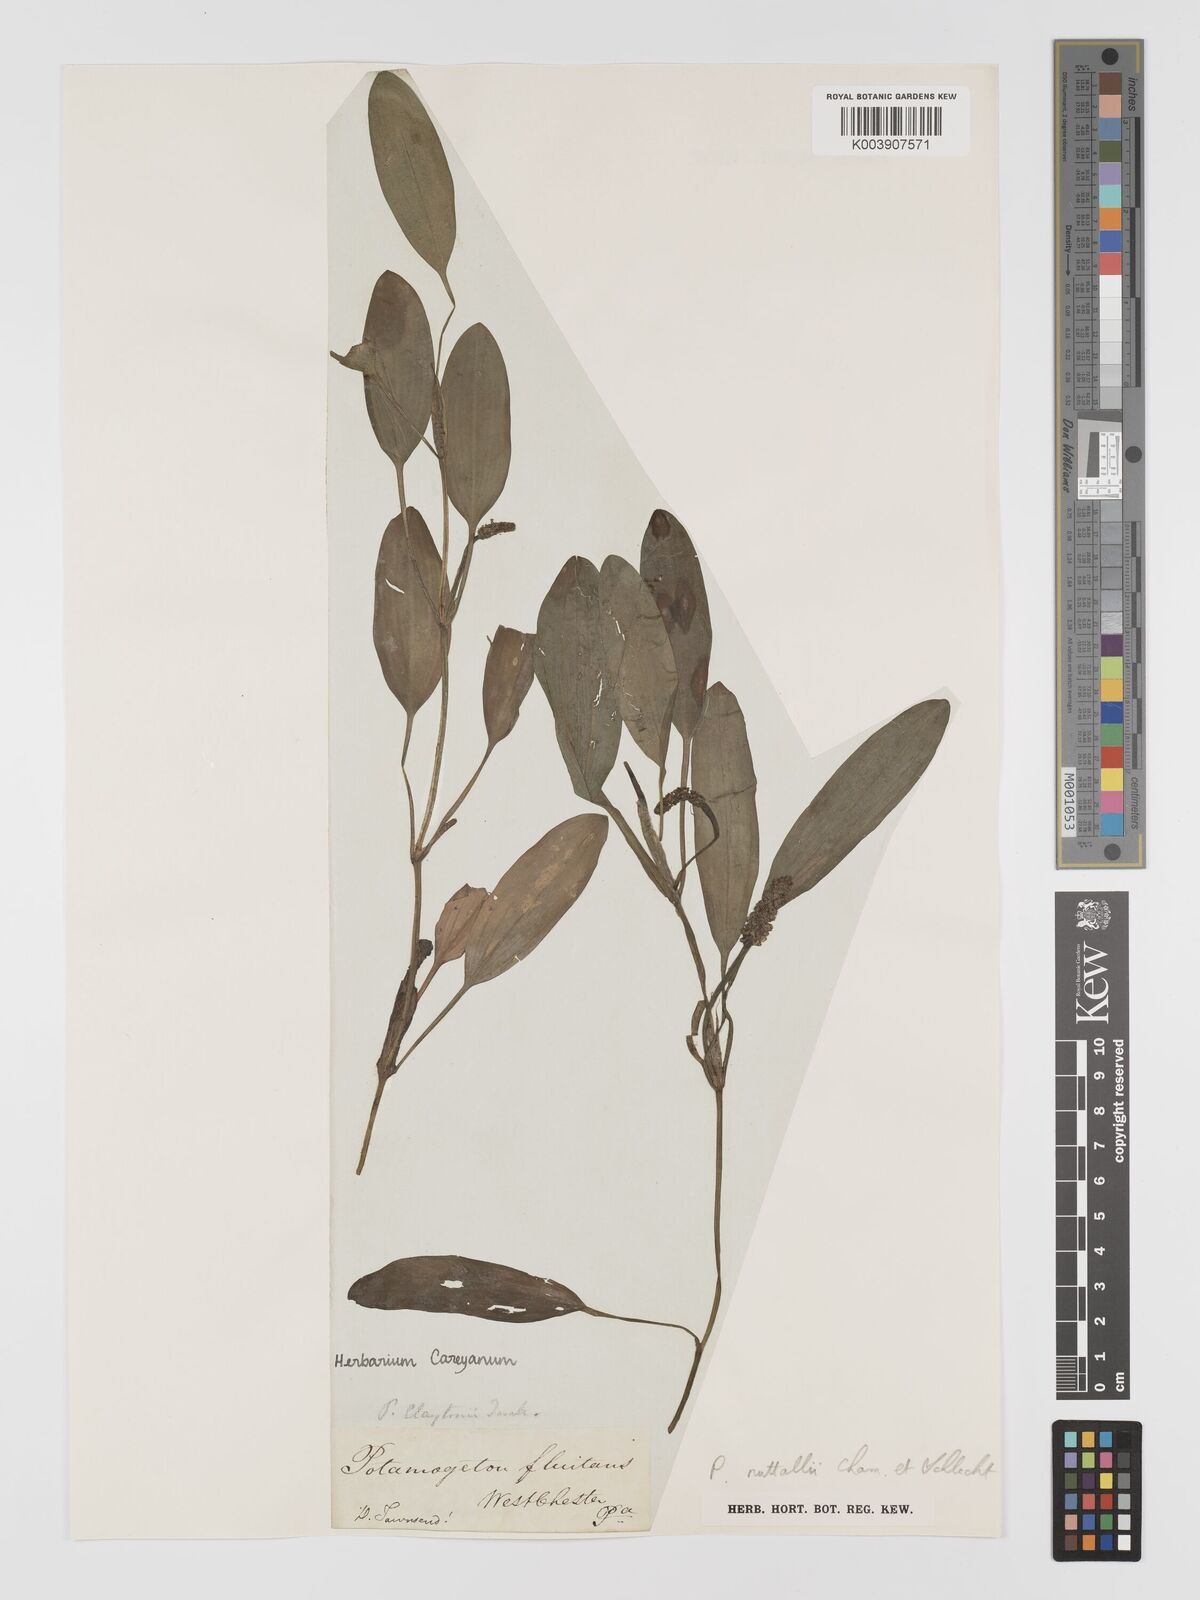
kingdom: Plantae
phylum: Tracheophyta
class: Liliopsida
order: Alismatales
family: Potamogetonaceae
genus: Potamogeton
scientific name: Potamogeton epihydrus
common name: American pondweed
